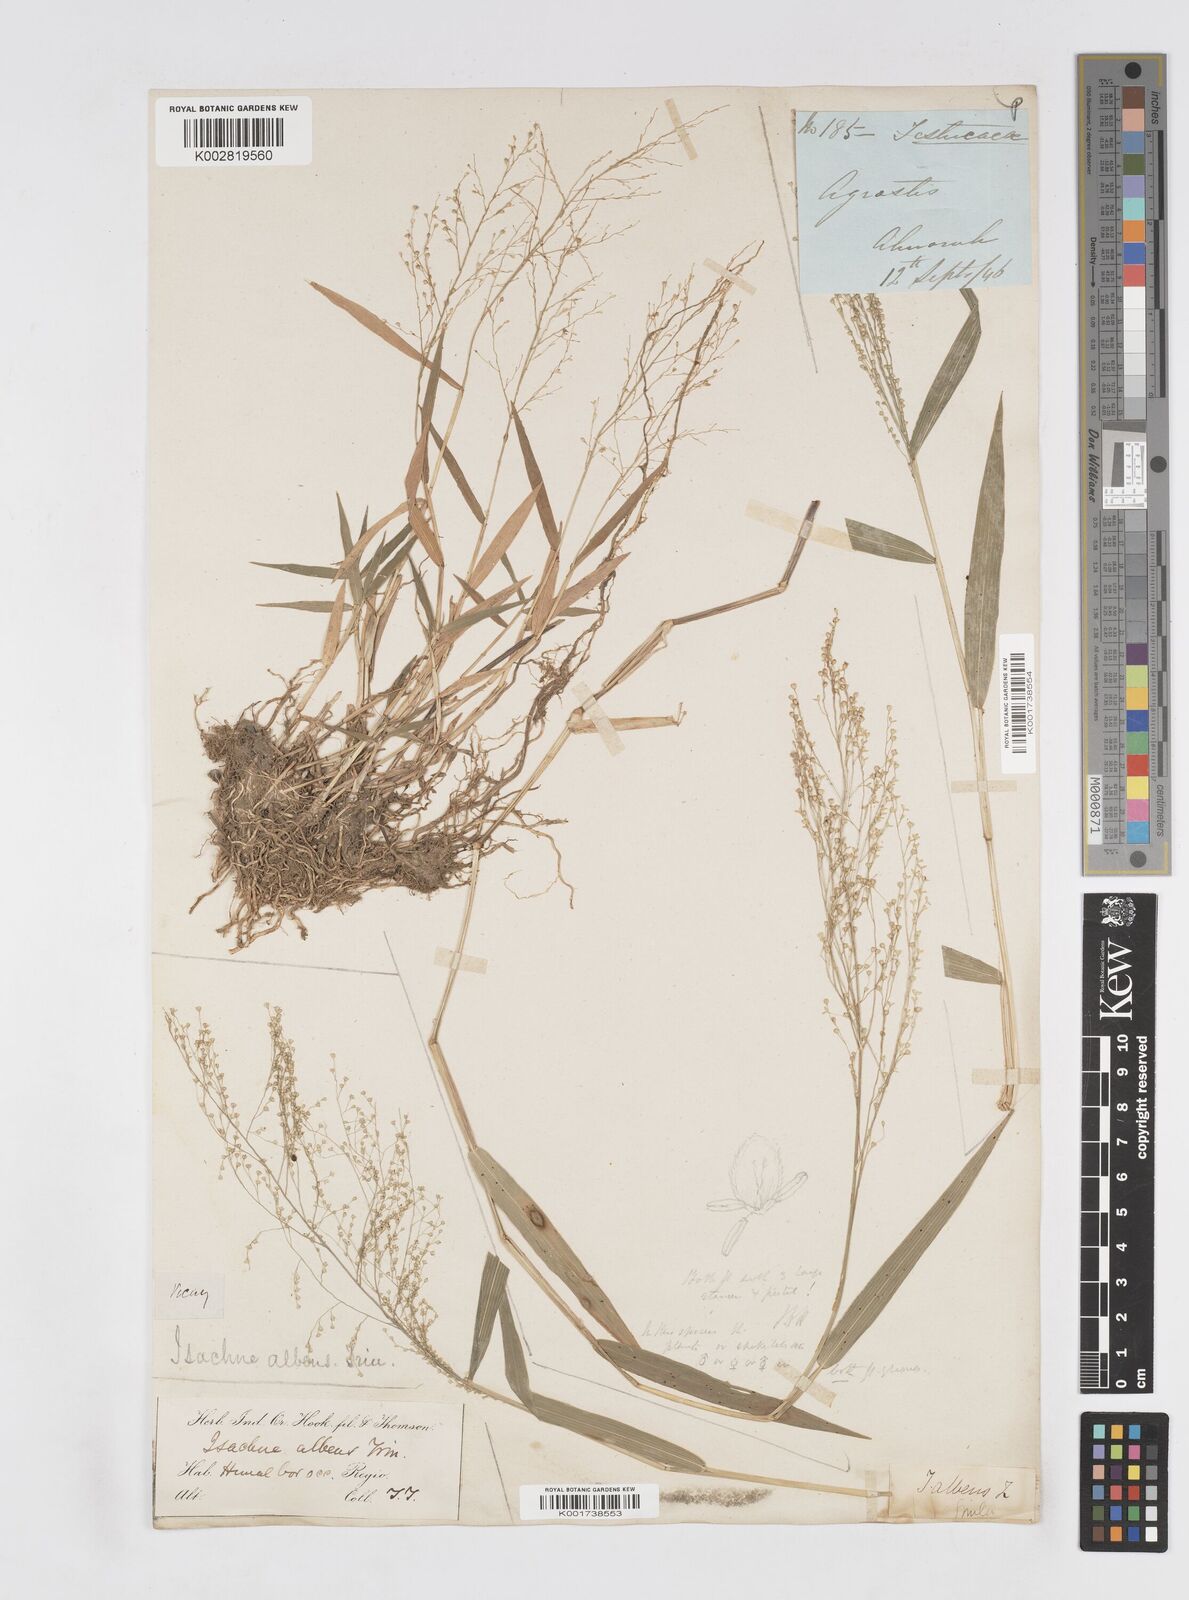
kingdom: Plantae
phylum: Tracheophyta
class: Liliopsida
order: Poales
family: Poaceae
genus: Isachne
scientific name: Isachne albens
